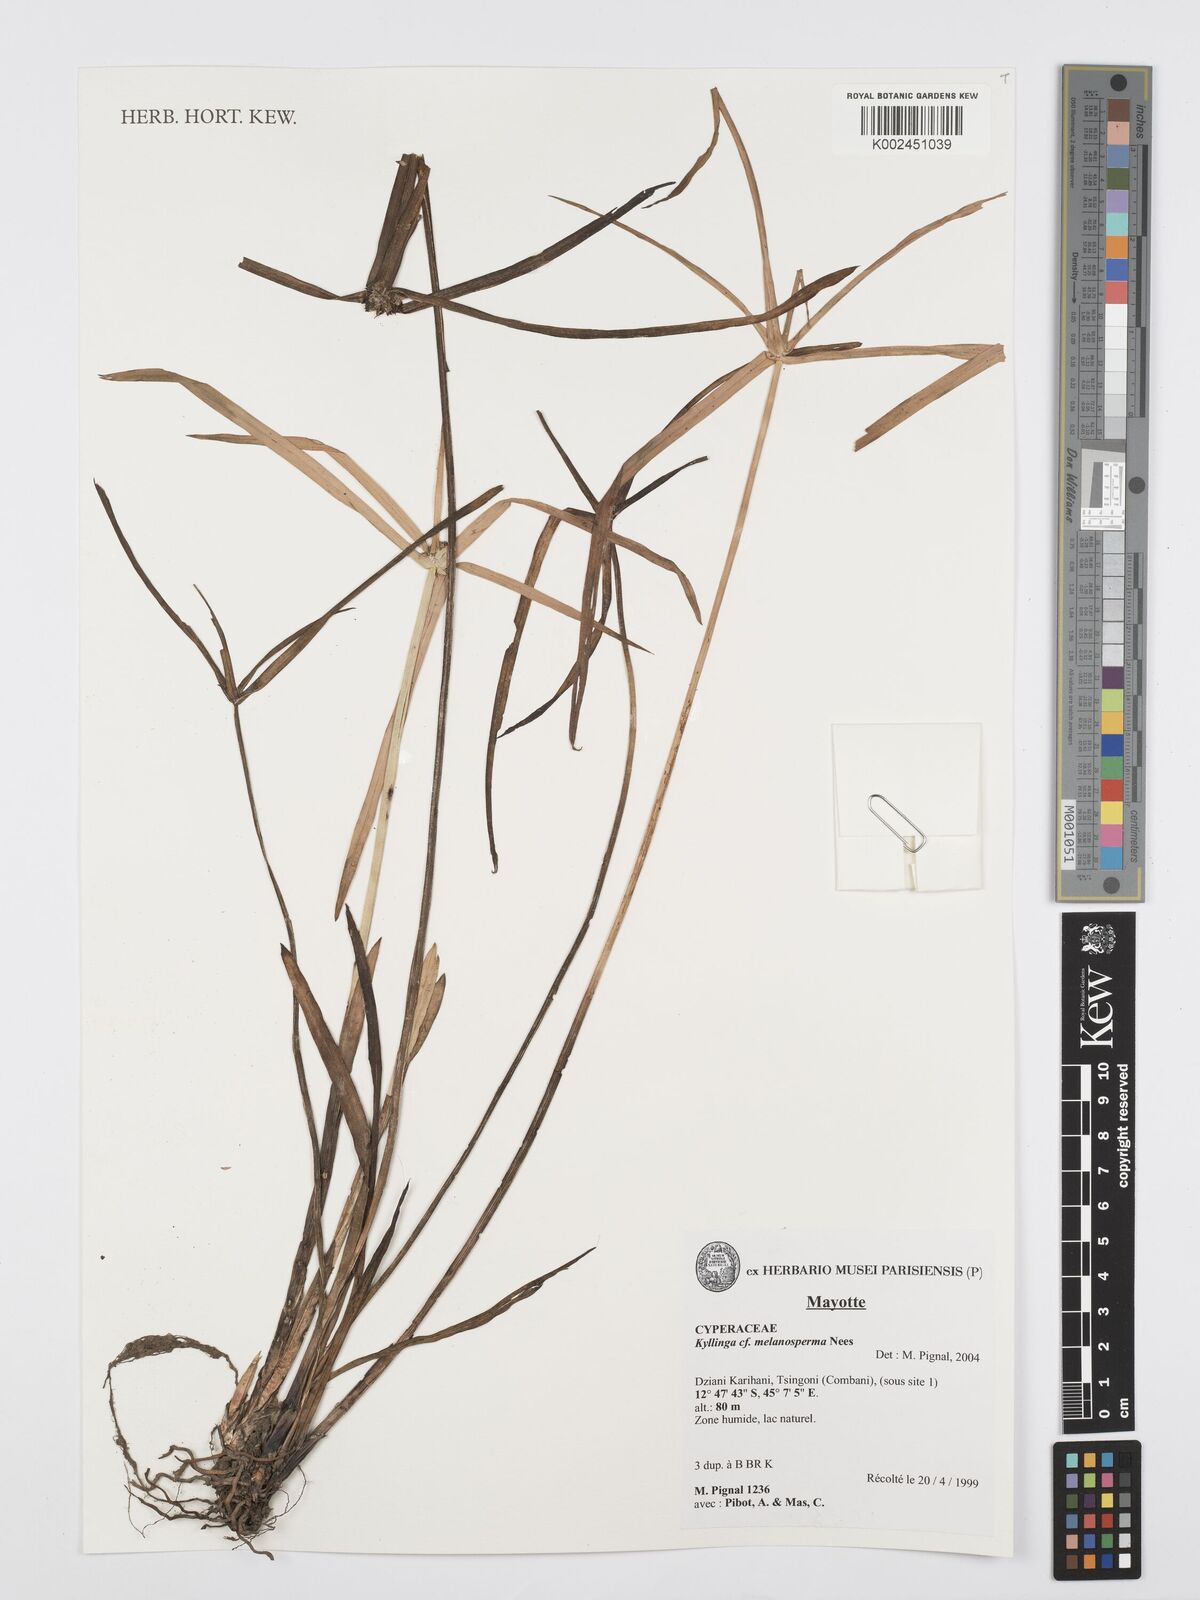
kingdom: Plantae
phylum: Tracheophyta
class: Liliopsida
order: Poales
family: Cyperaceae
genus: Cyperus
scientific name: Cyperus melanospermus
